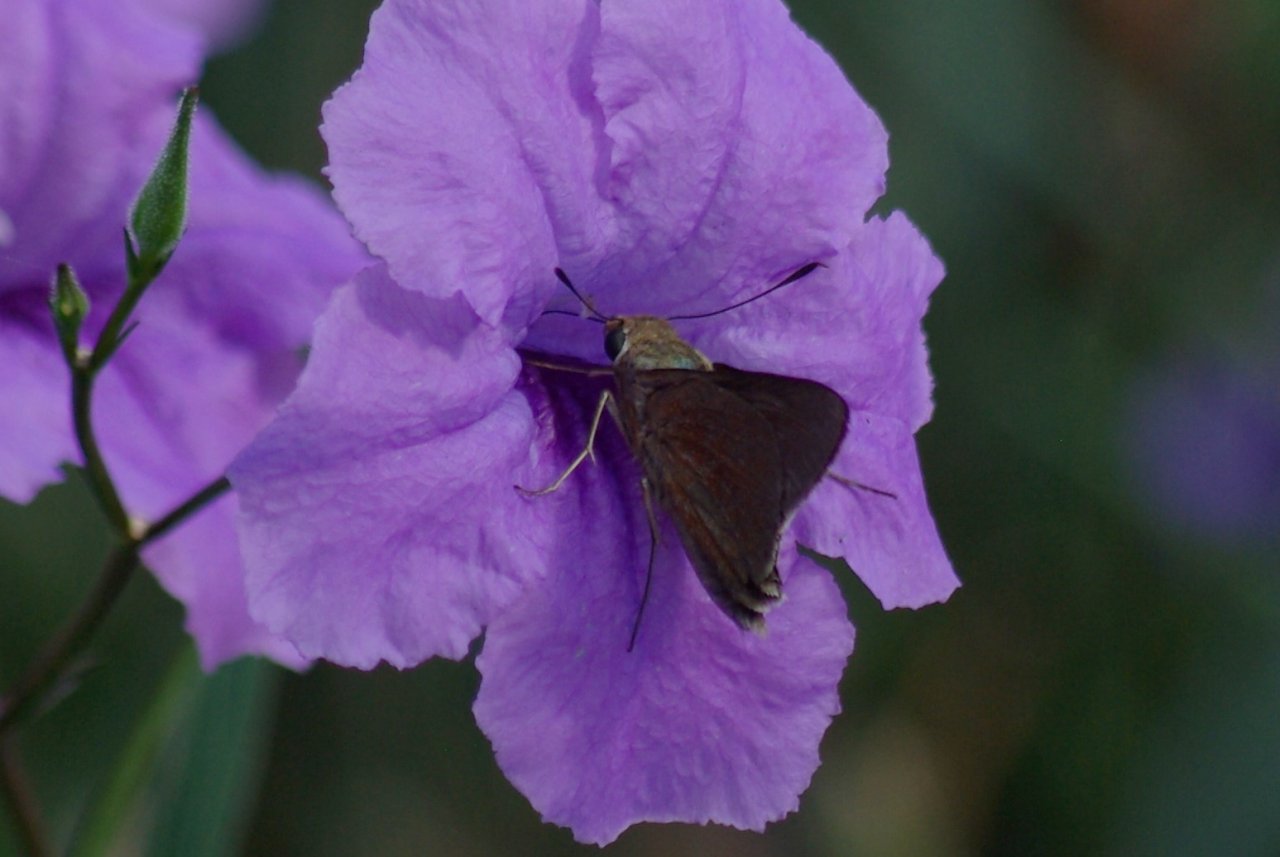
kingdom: Animalia
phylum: Arthropoda
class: Insecta
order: Lepidoptera
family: Hesperiidae
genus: Lerema
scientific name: Lerema accius
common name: Clouded Skipper
